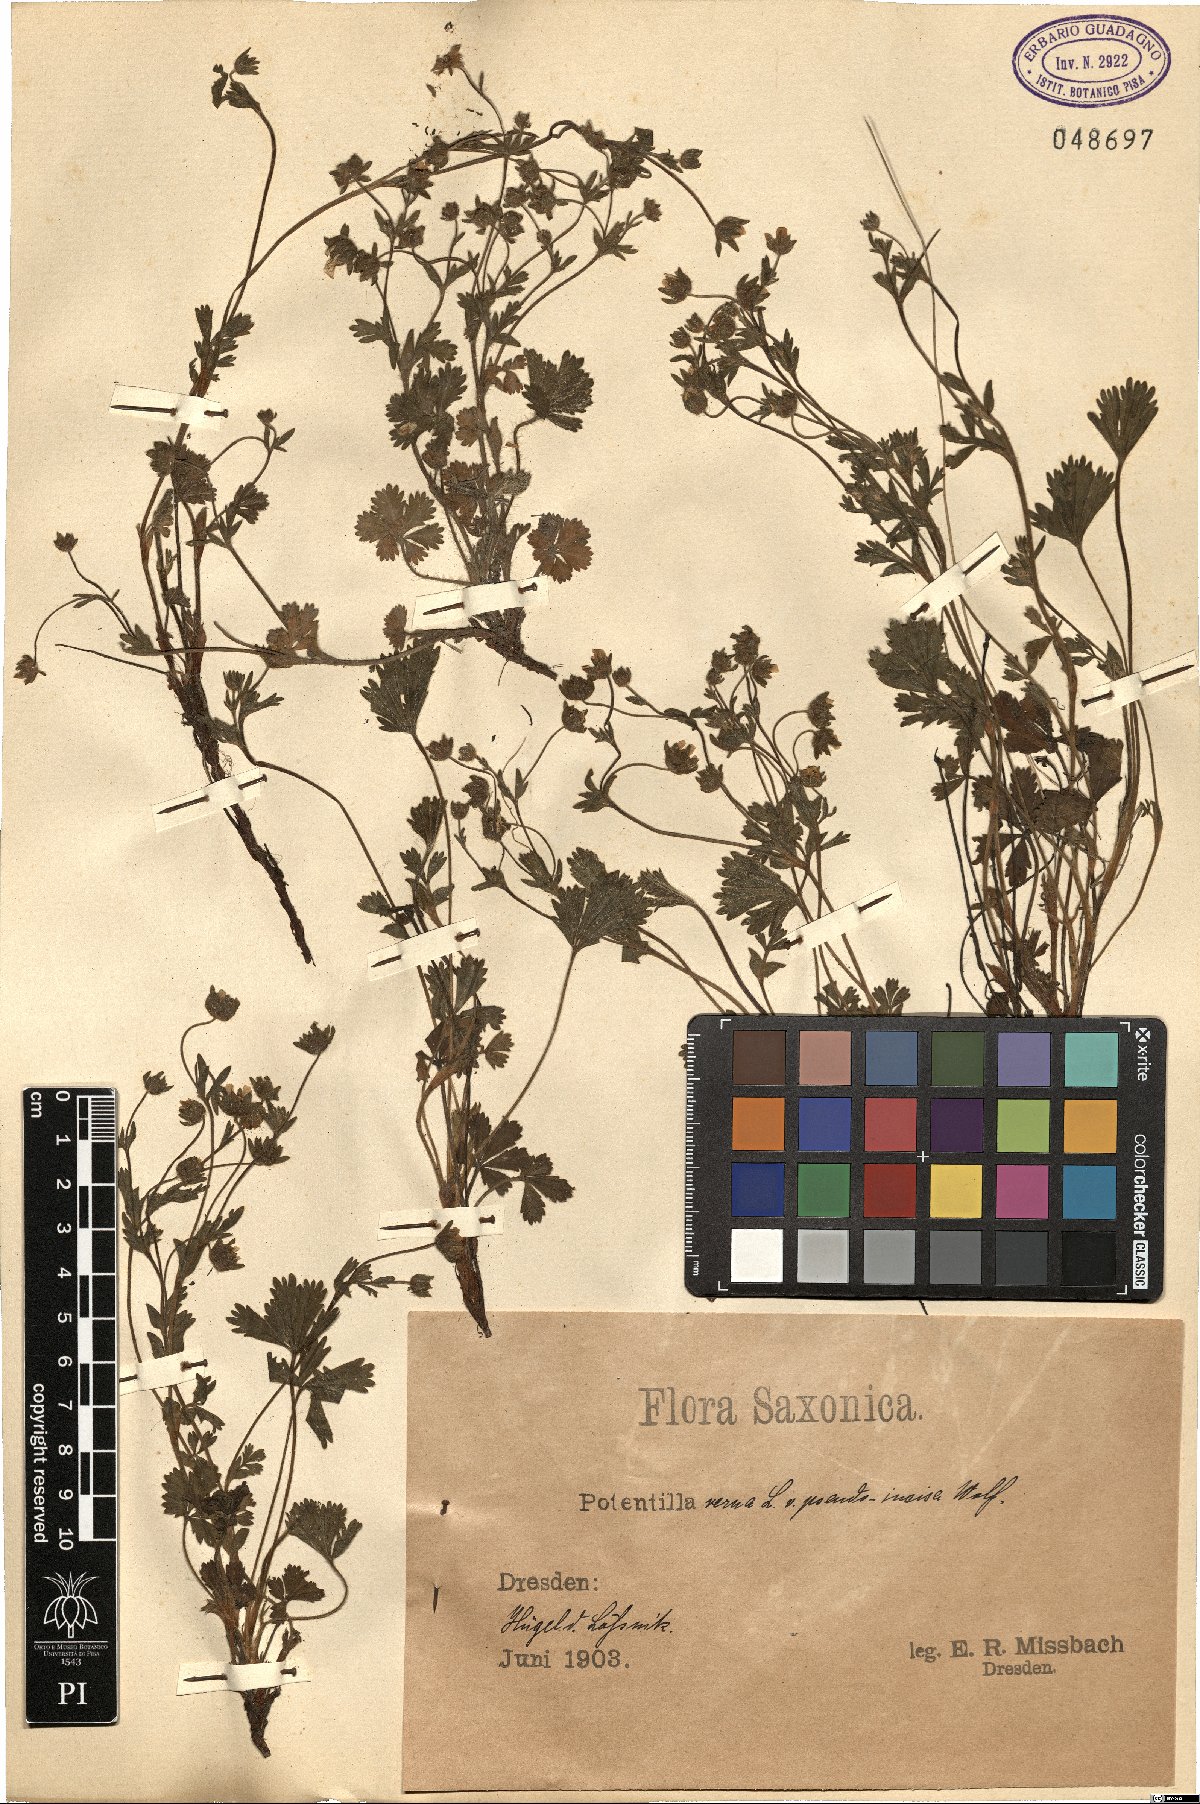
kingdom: Plantae
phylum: Tracheophyta
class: Magnoliopsida
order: Rosales
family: Rosaceae
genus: Potentilla
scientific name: Potentilla verna
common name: Spring cinquefoil
